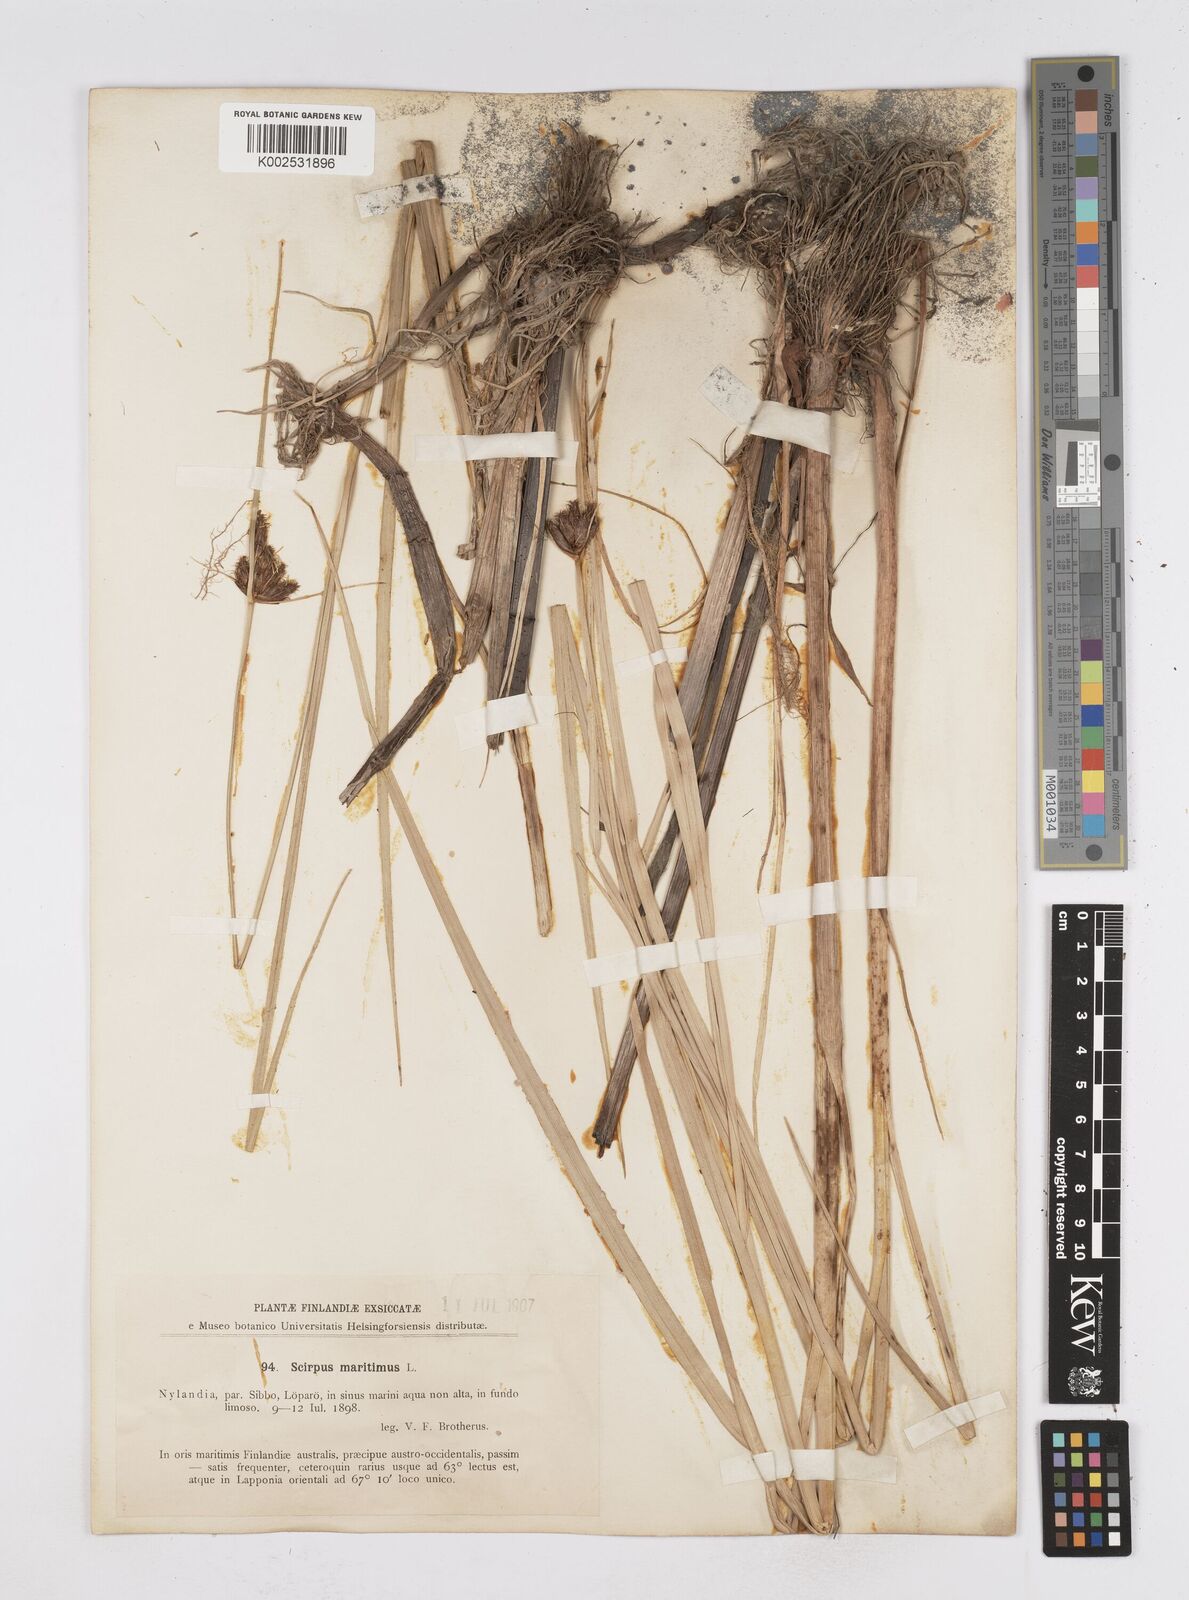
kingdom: Plantae
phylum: Tracheophyta
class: Liliopsida
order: Poales
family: Cyperaceae
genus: Bolboschoenus
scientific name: Bolboschoenus maritimus
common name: Sea club-rush
